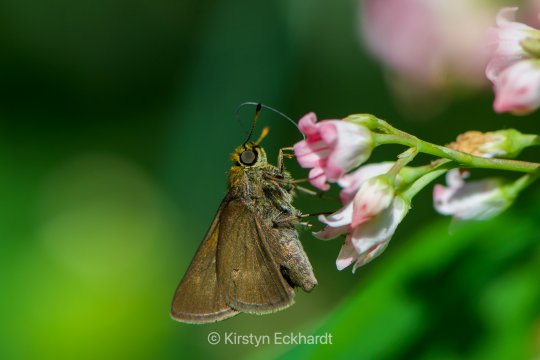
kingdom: Animalia
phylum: Arthropoda
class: Insecta
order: Lepidoptera
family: Hesperiidae
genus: Euphyes
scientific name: Euphyes vestris
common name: Dun Skipper
